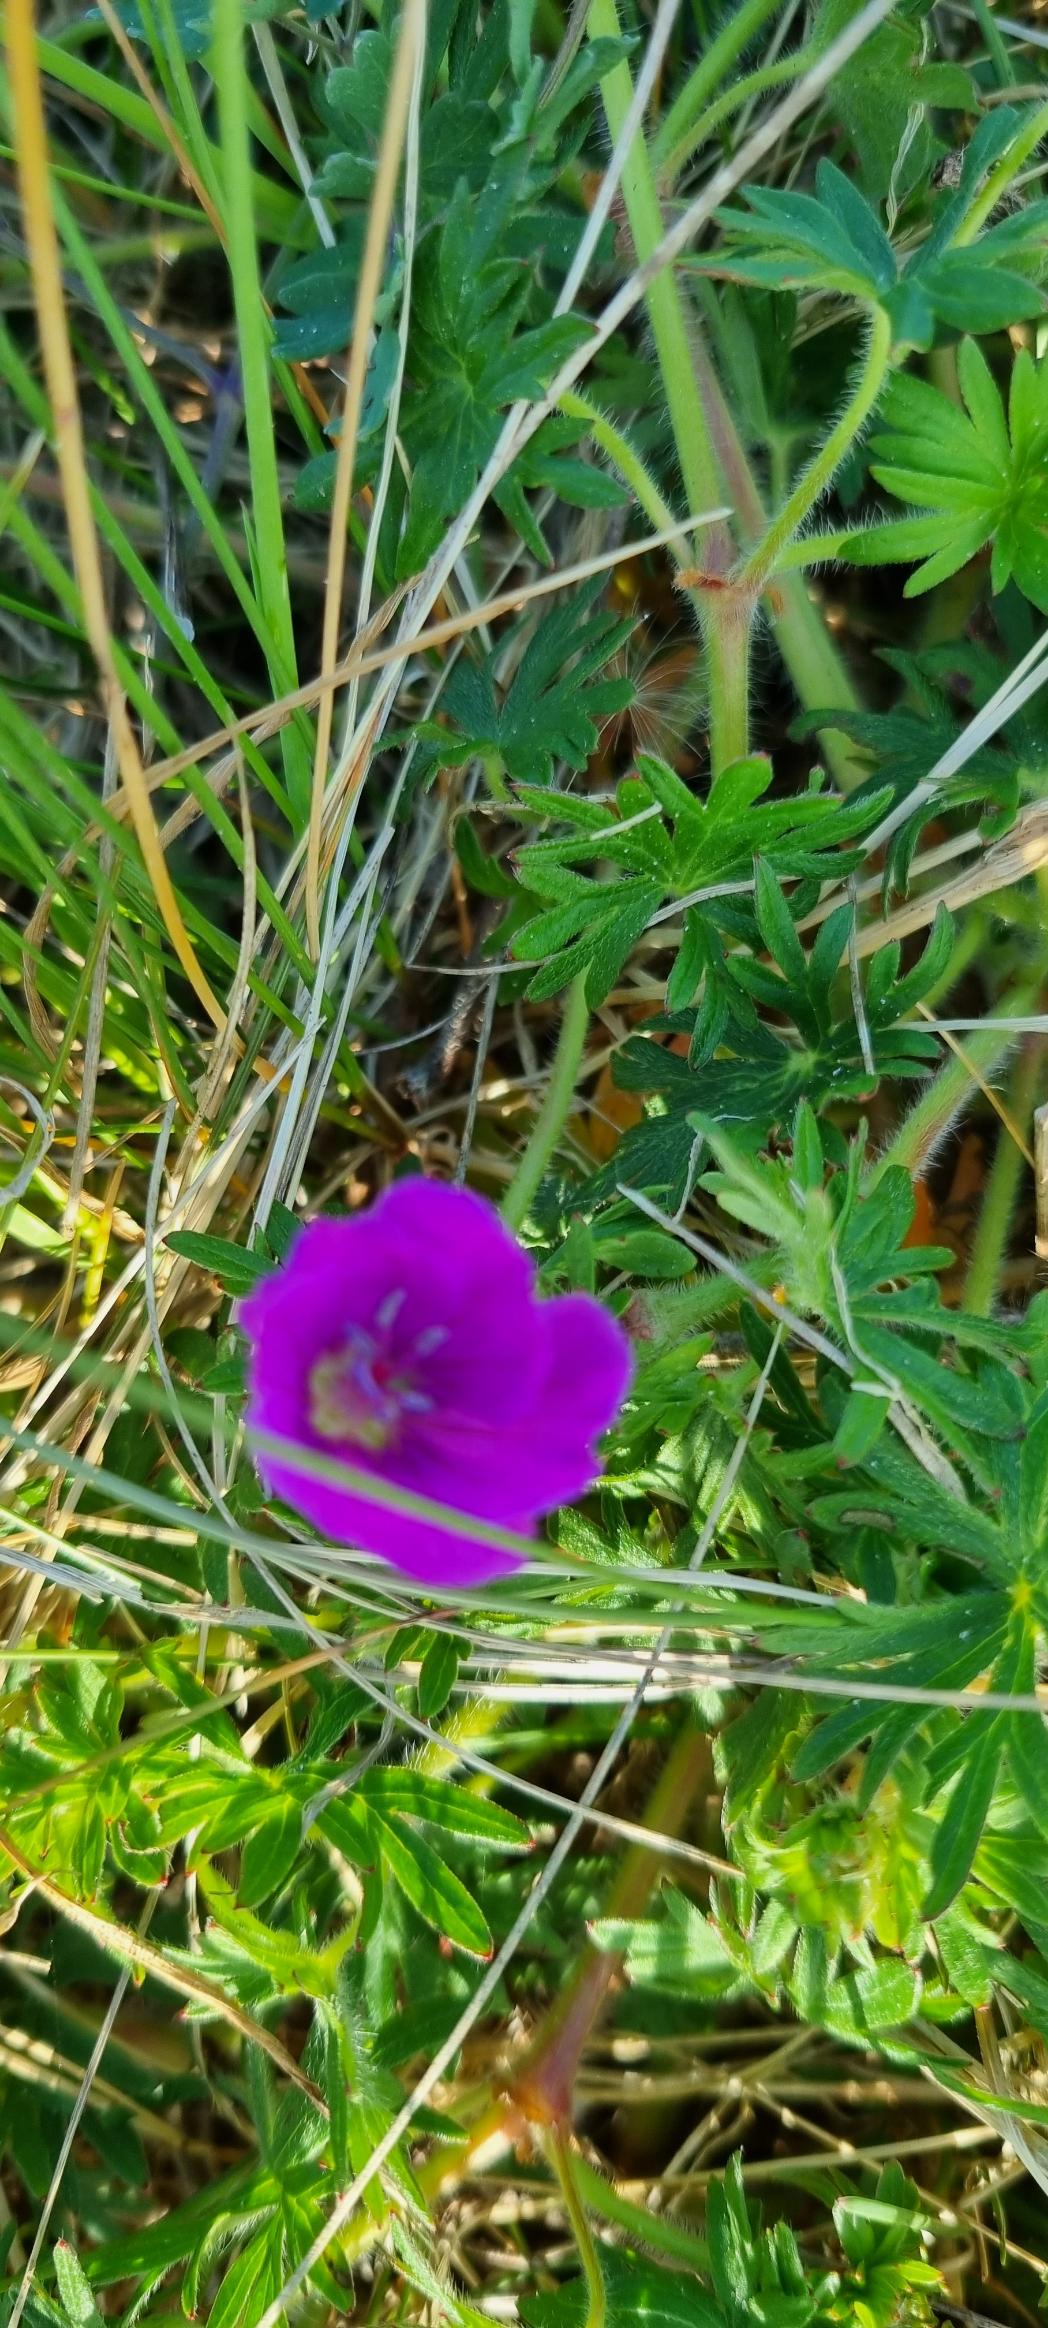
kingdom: Plantae
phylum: Tracheophyta
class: Magnoliopsida
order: Geraniales
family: Geraniaceae
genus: Geranium
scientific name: Geranium sanguineum
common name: Blodrød storkenæb
